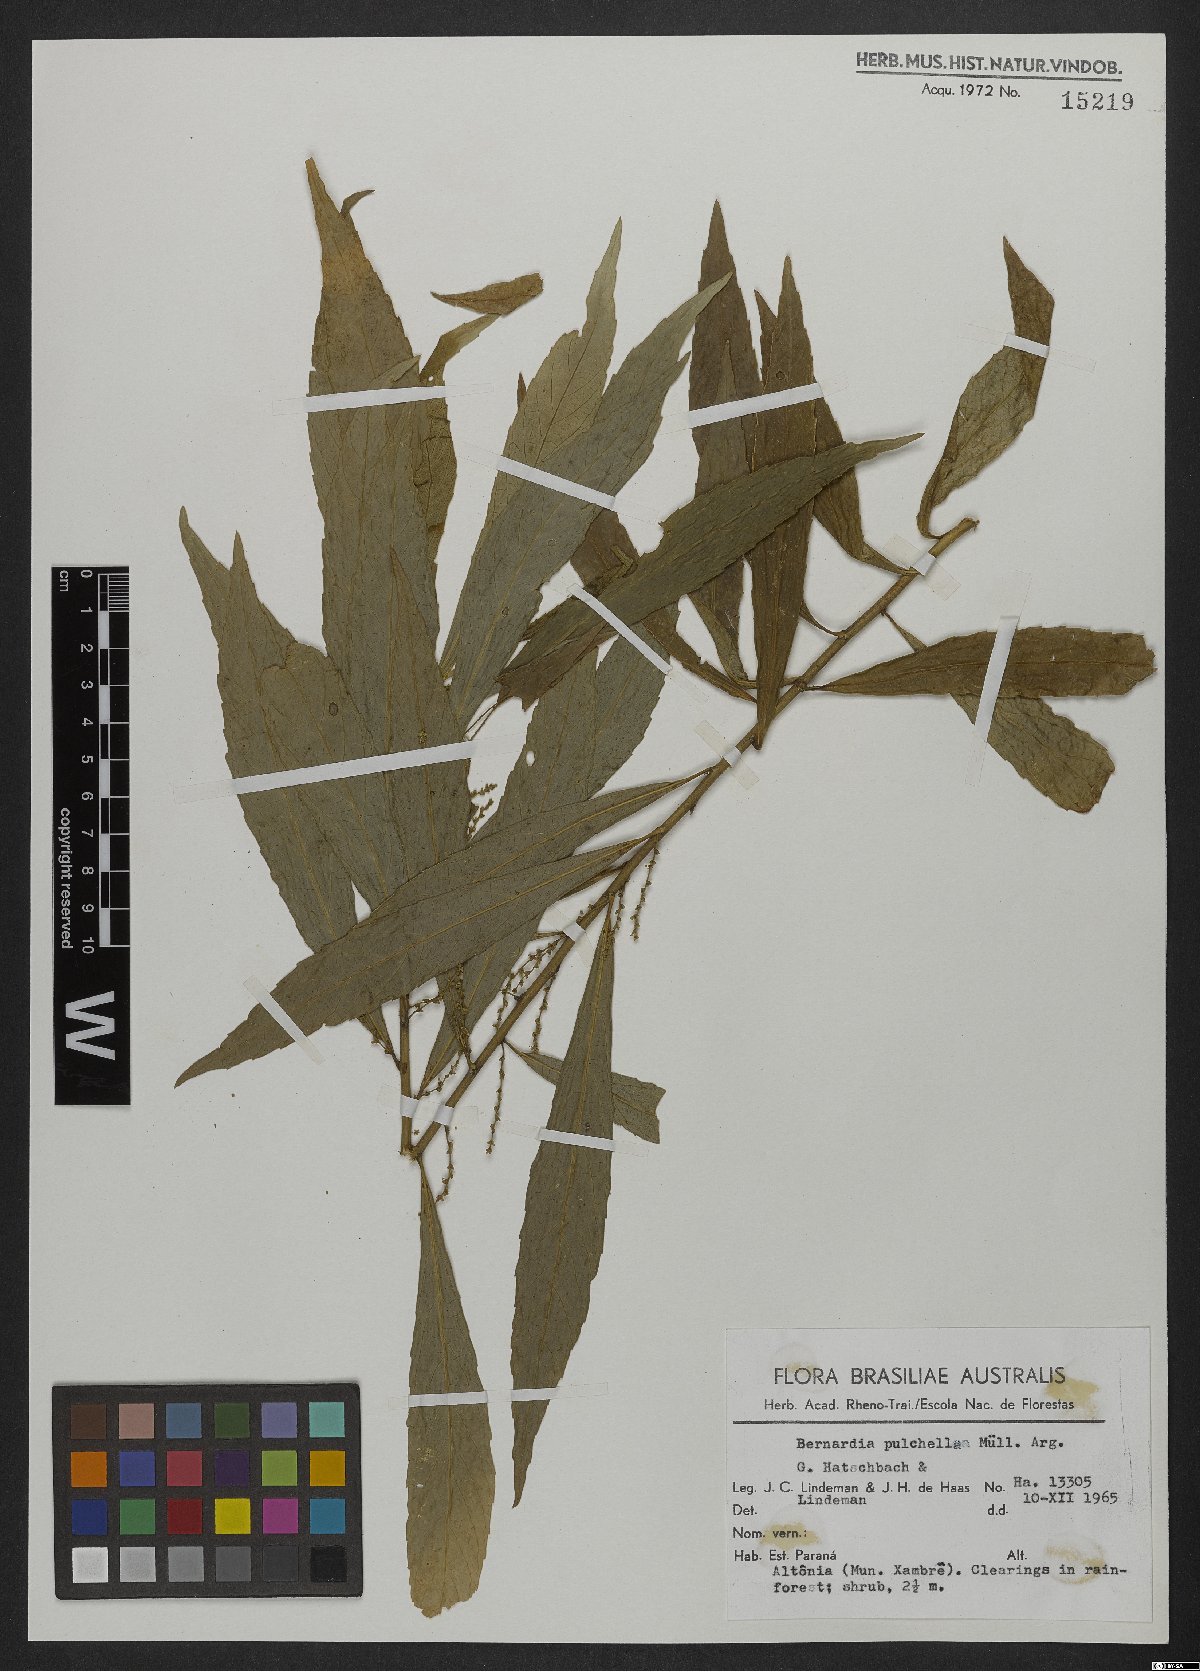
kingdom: Plantae
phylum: Tracheophyta
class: Magnoliopsida
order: Malpighiales
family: Euphorbiaceae
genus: Bernardia
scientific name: Bernardia pulchella
